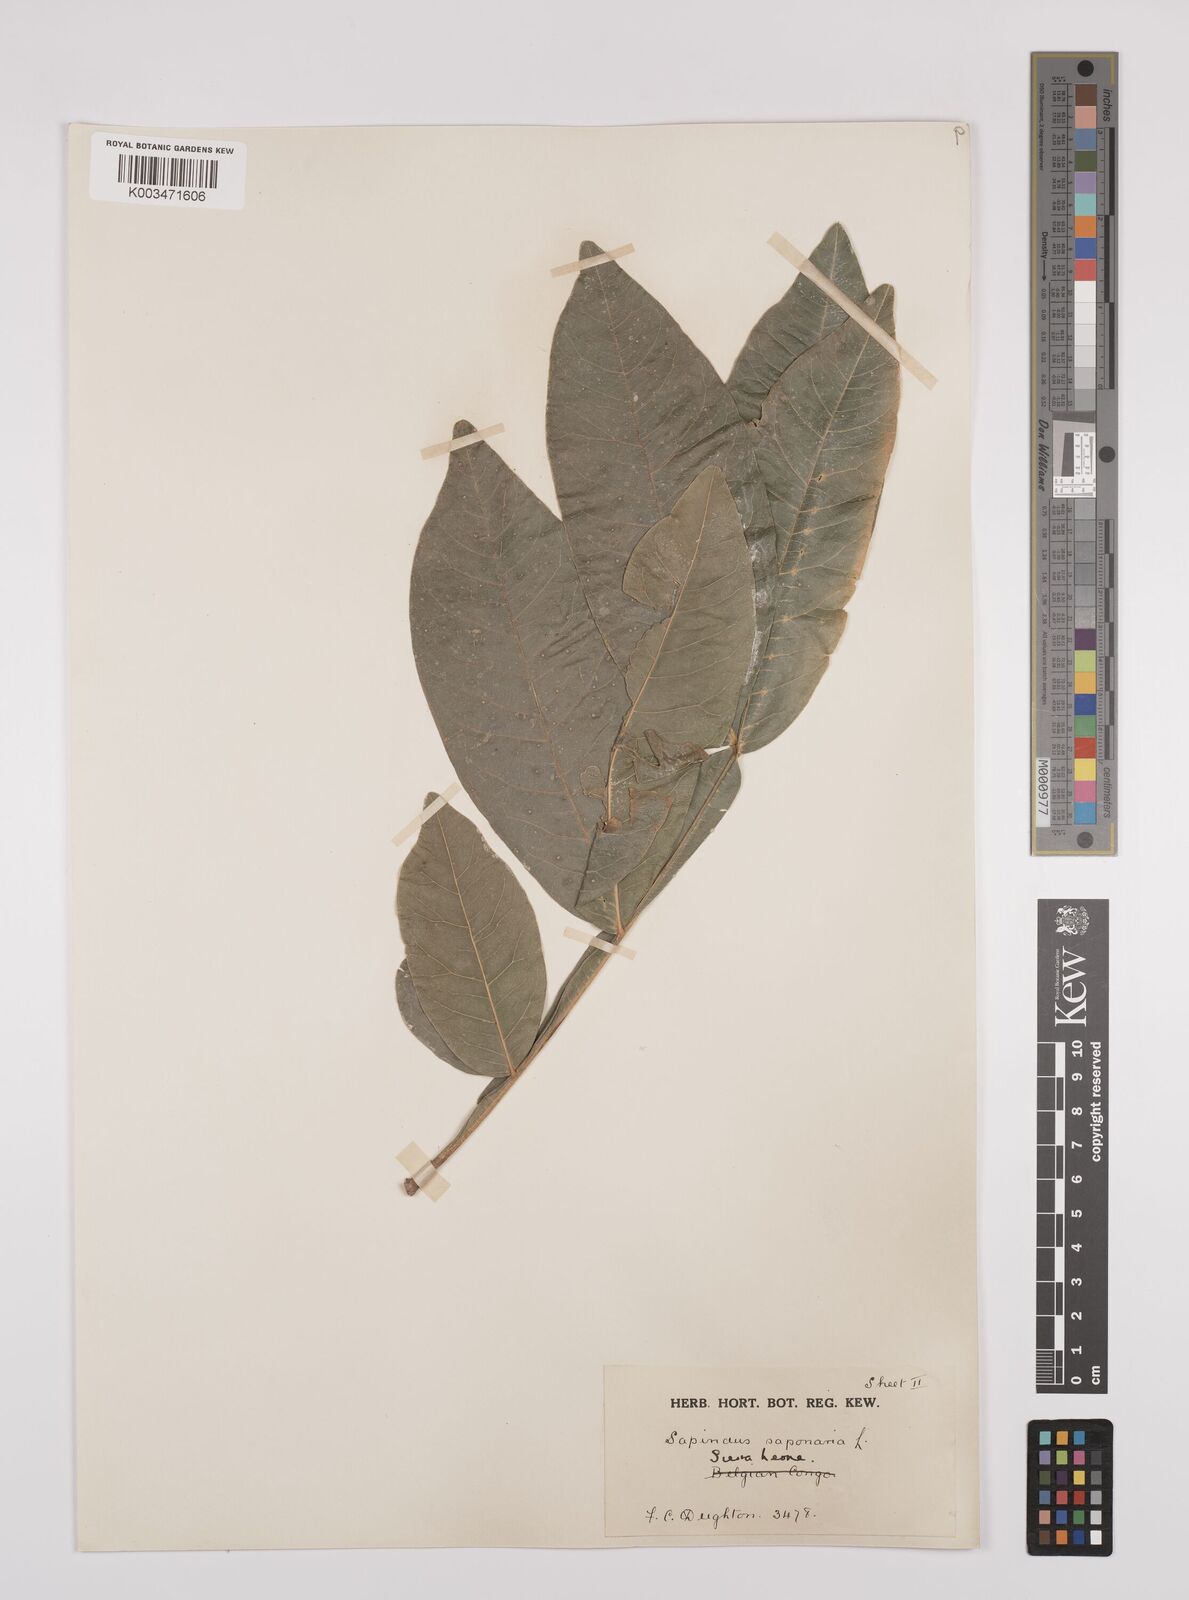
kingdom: Plantae
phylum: Tracheophyta
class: Magnoliopsida
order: Sapindales
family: Sapindaceae
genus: Sapindus
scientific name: Sapindus
